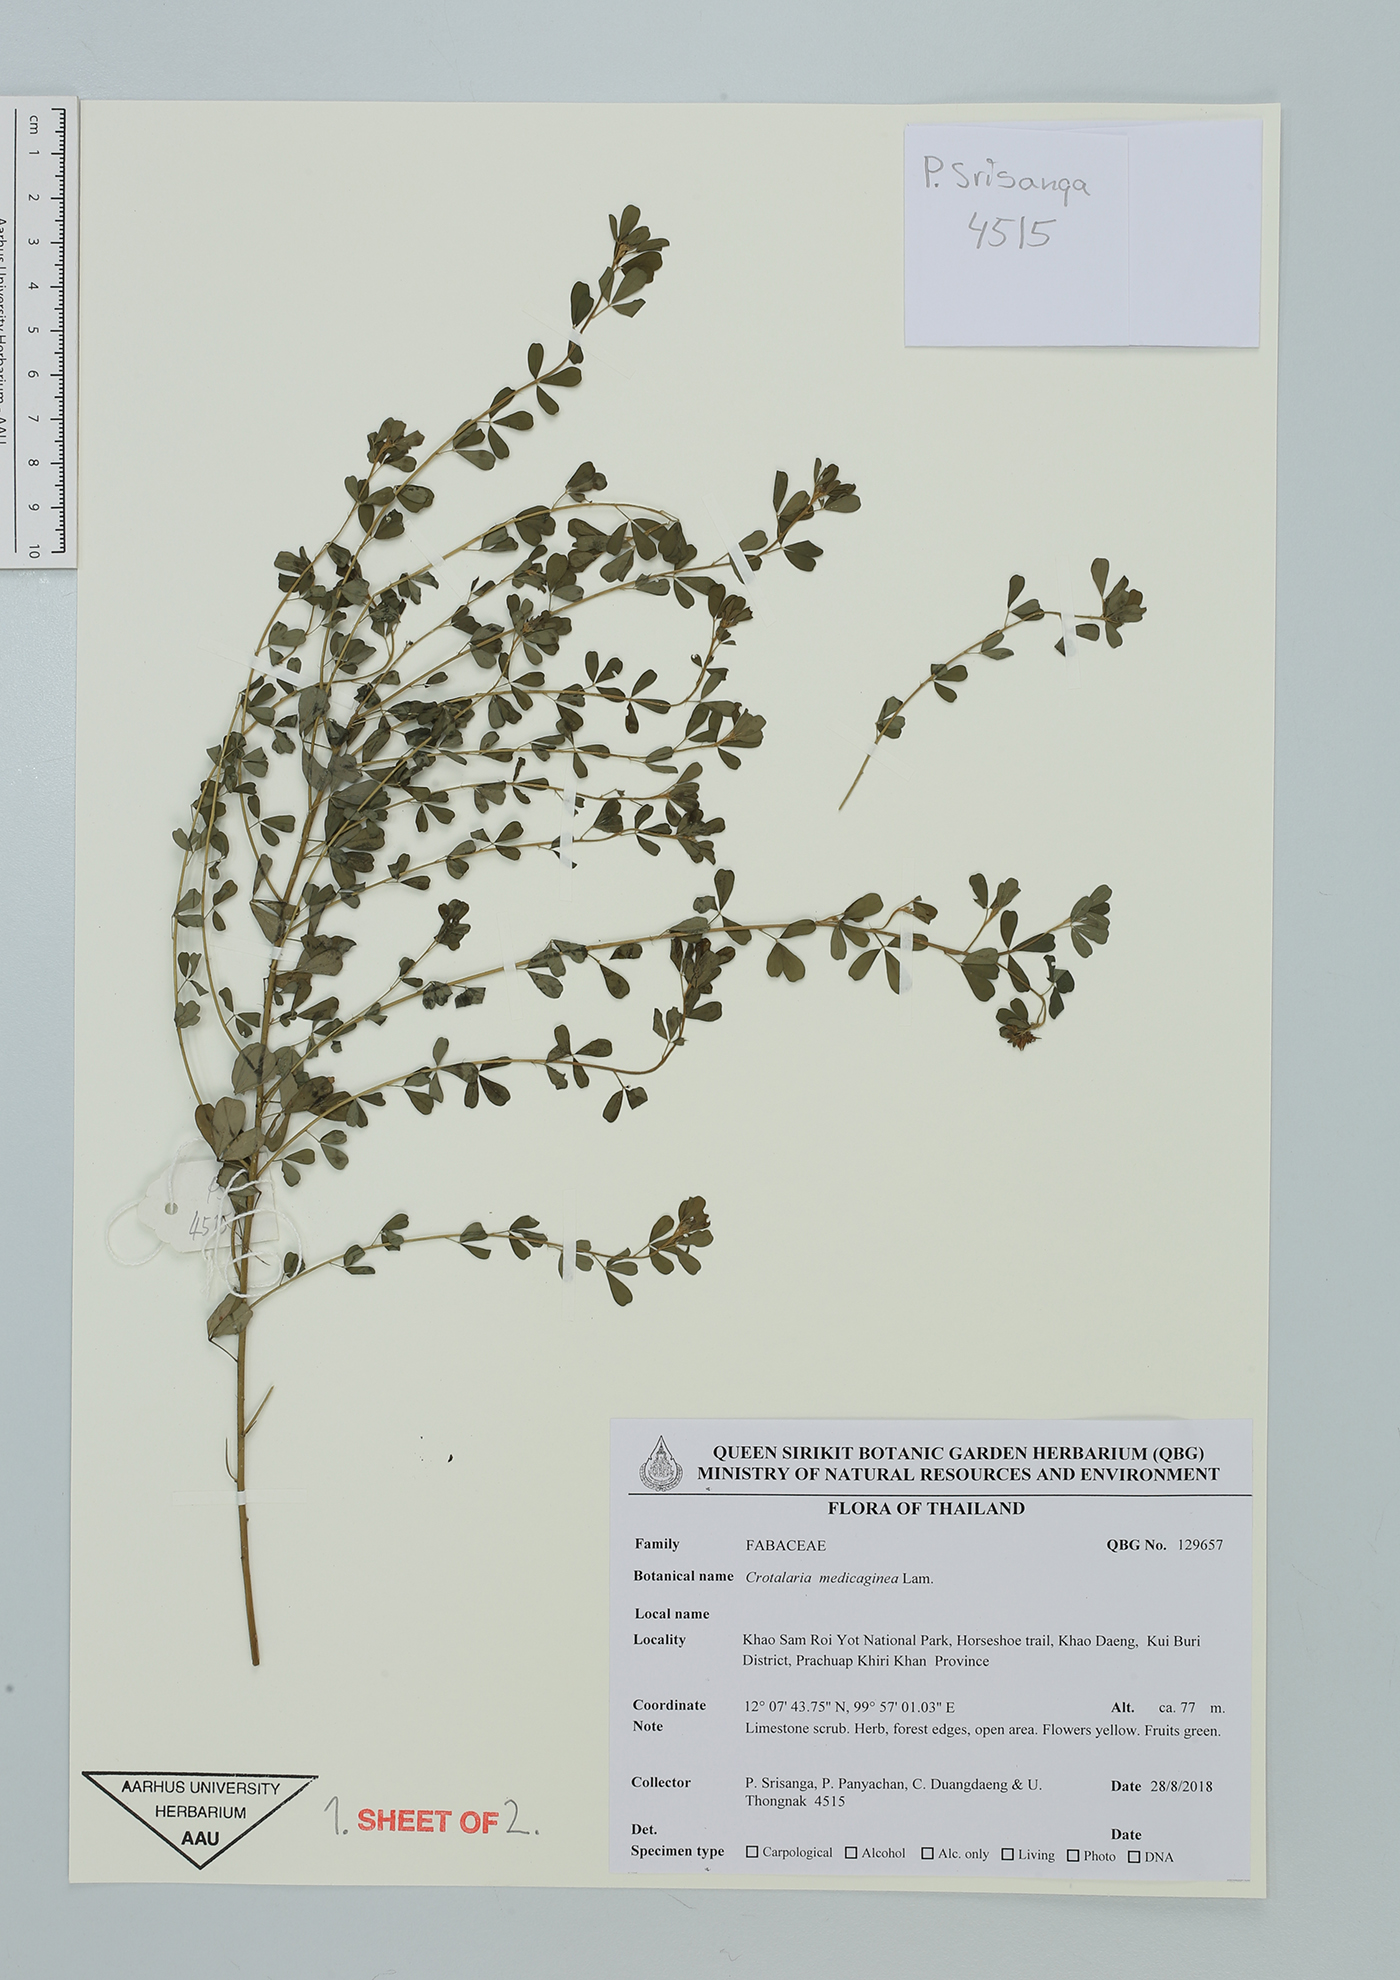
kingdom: Plantae
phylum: Tracheophyta
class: Magnoliopsida
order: Fabales
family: Fabaceae
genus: Crotalaria
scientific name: Crotalaria medicaginea
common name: Trefoil rattlepod
